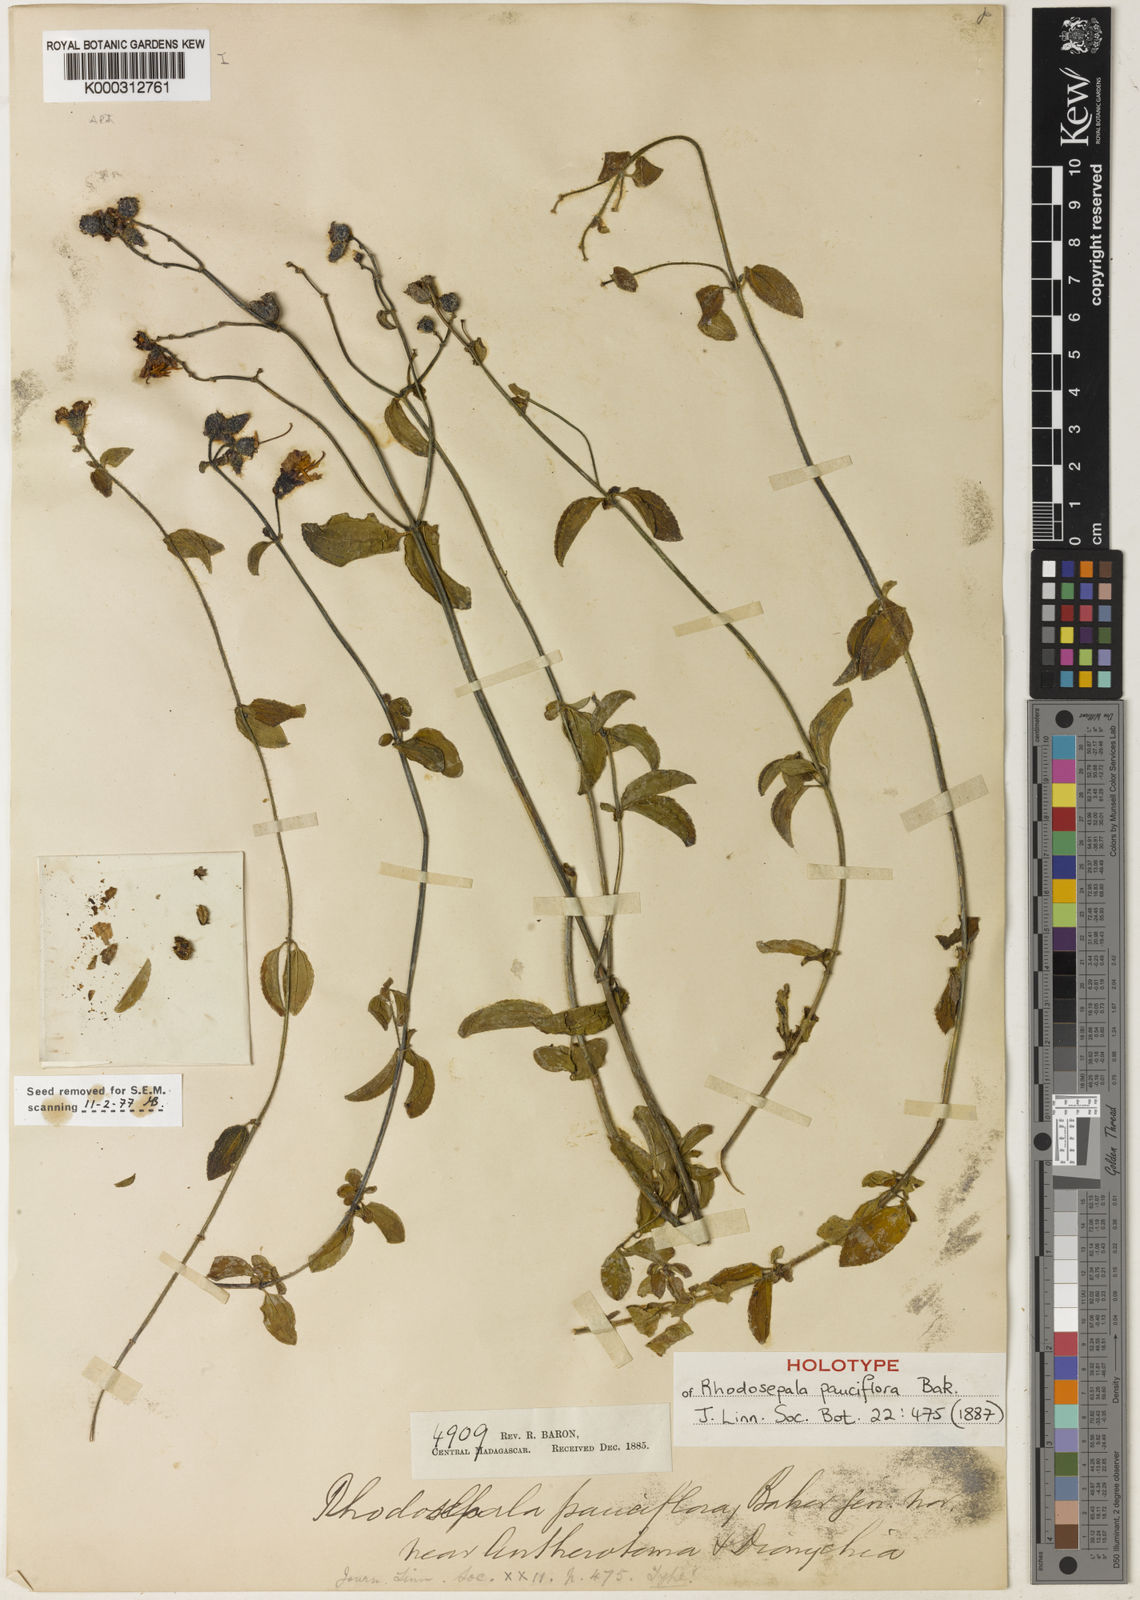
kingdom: Plantae
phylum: Tracheophyta
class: Magnoliopsida
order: Myrtales
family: Melastomataceae
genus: Dissotis
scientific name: Dissotis
